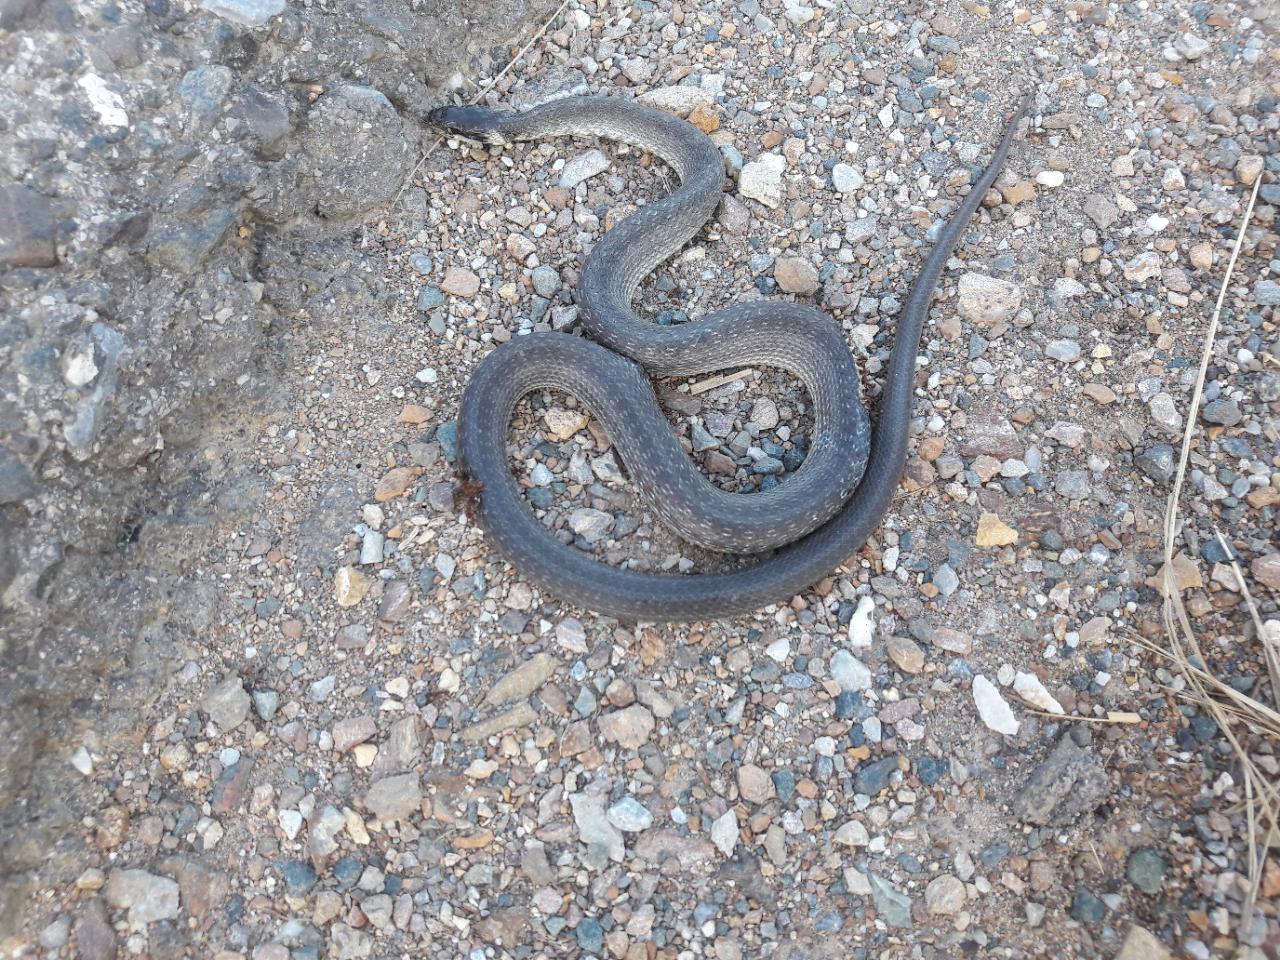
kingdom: Animalia
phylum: Chordata
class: Squamata
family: Colubridae
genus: Natrix
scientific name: Natrix natrix
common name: Grass snake
